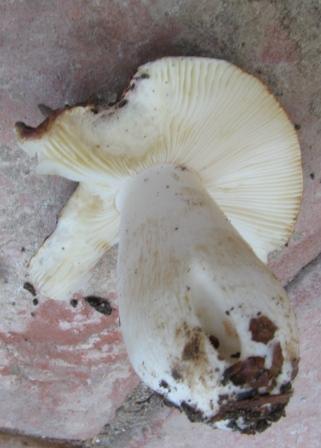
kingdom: Fungi
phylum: Basidiomycota
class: Agaricomycetes
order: Russulales
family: Russulaceae
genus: Russula
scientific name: Russula atropurpurea
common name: purpurbroget skørhat
